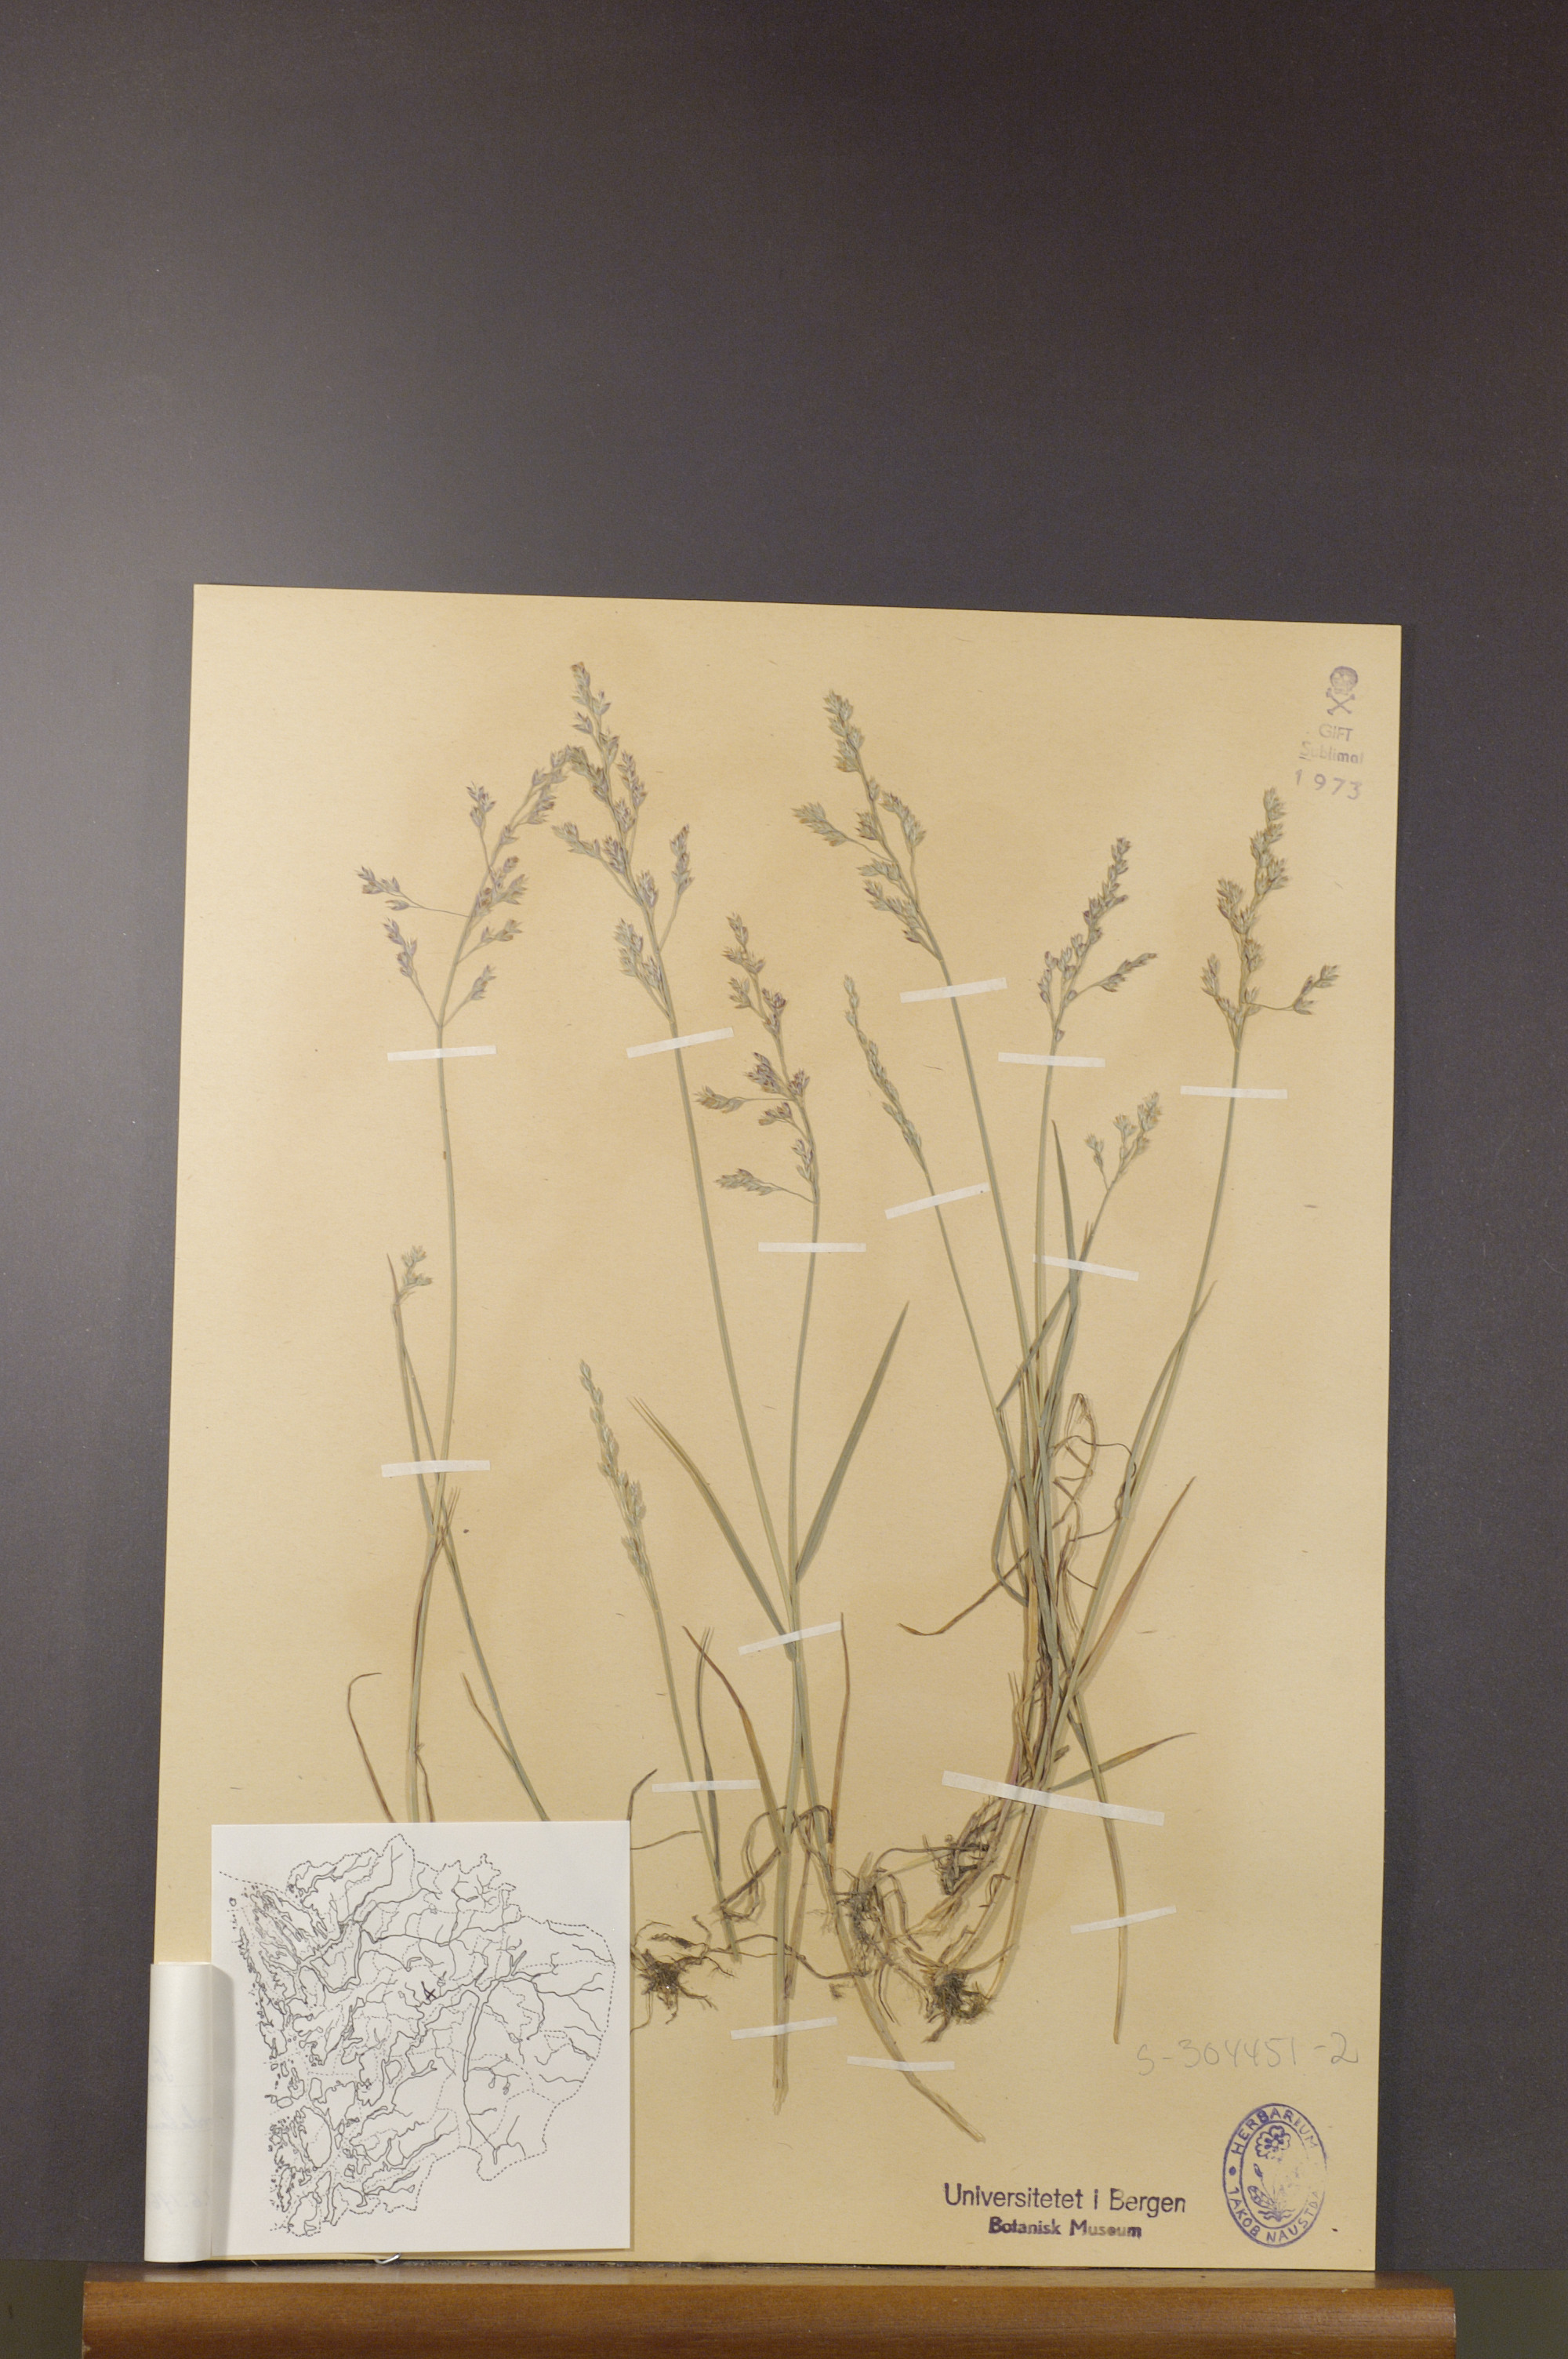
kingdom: Plantae
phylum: Tracheophyta
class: Liliopsida
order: Poales
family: Poaceae
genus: Poa
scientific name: Poa glauca
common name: Glaucous bluegrass
